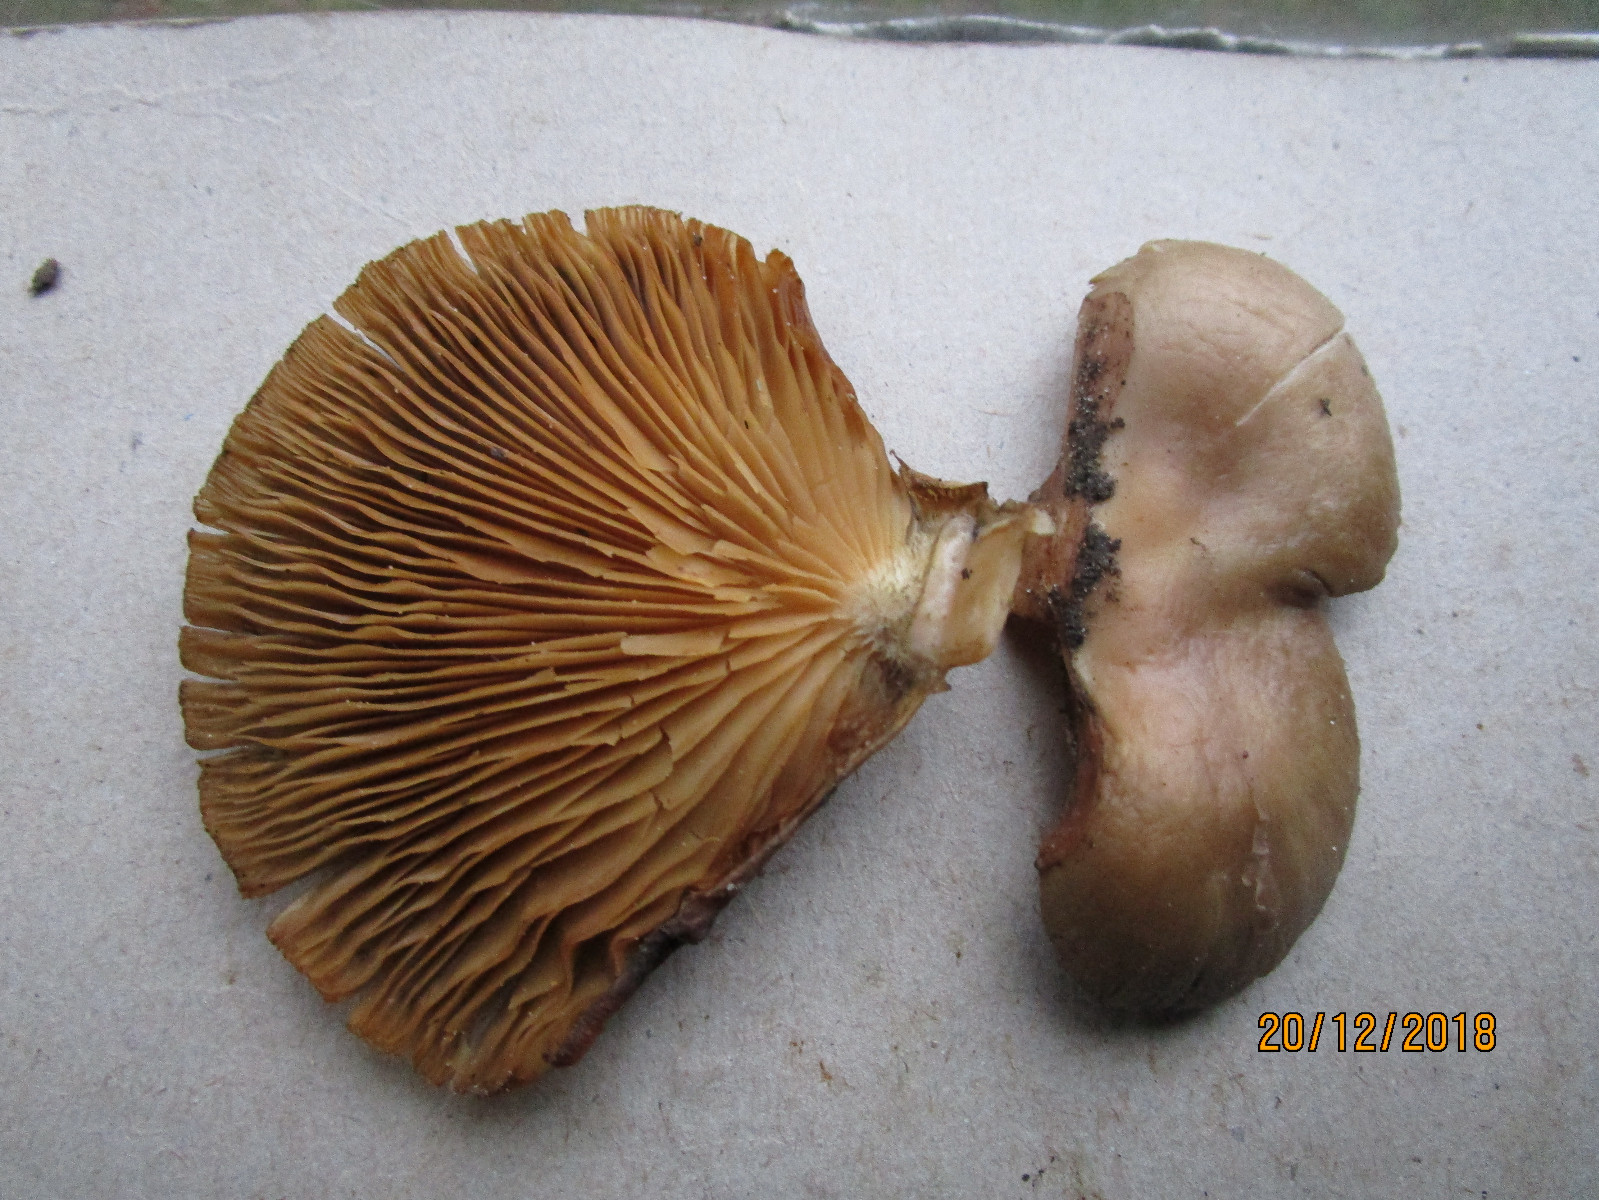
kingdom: Fungi
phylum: Basidiomycota
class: Agaricomycetes
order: Agaricales
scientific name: Agaricales
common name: champignonordenen
